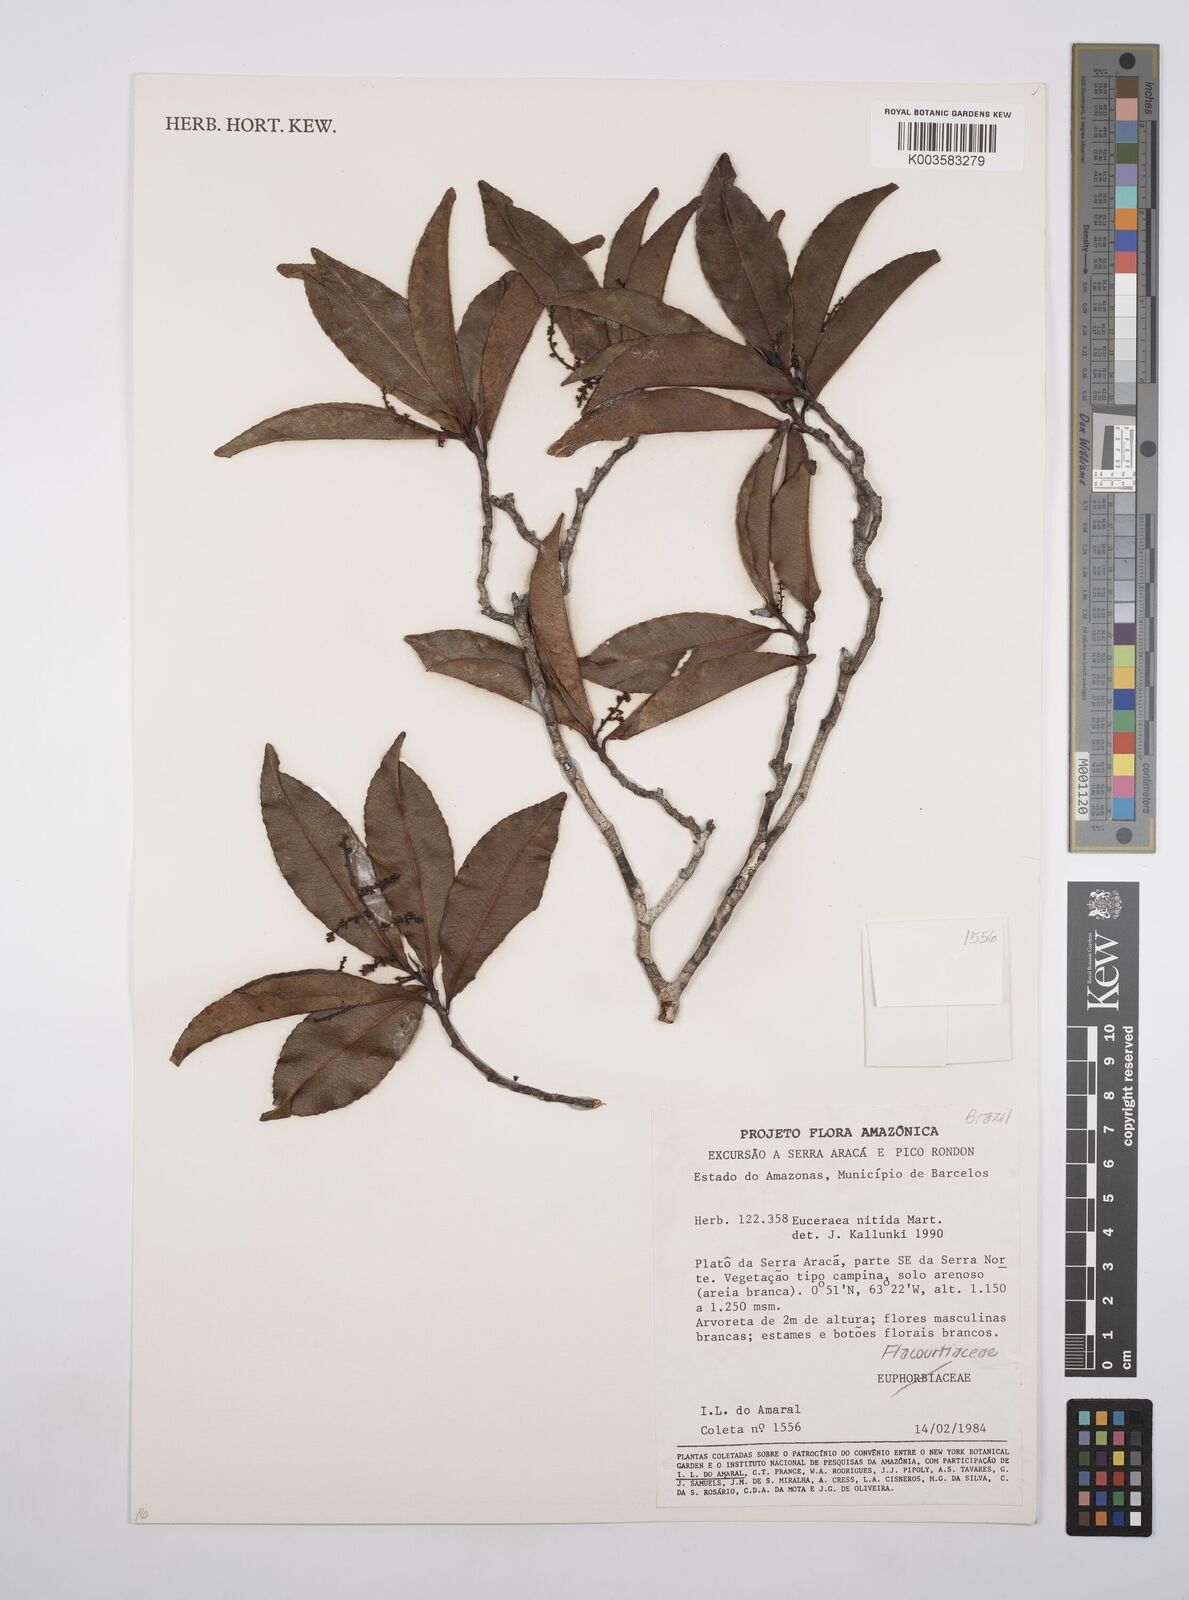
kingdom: Plantae
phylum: Tracheophyta
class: Magnoliopsida
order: Malpighiales
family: Salicaceae
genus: Casearia
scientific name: Casearia euceraea
